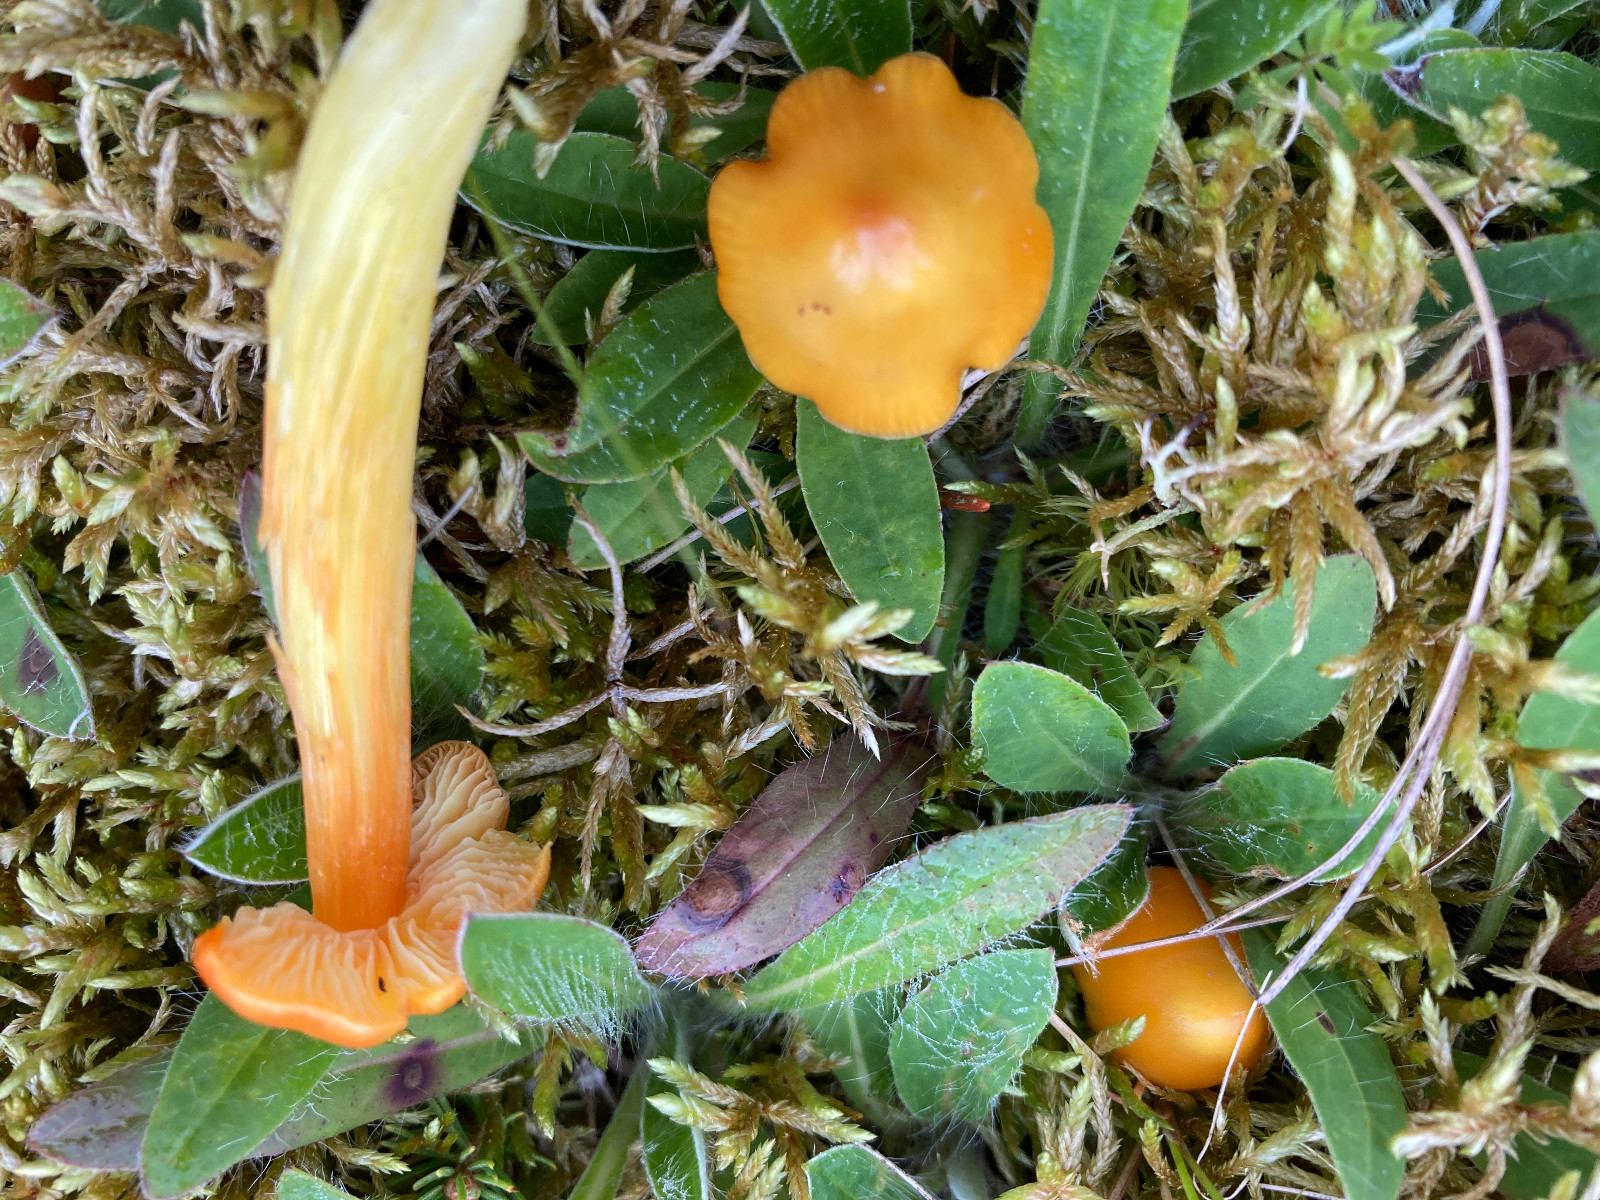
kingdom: Fungi
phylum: Basidiomycota
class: Agaricomycetes
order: Agaricales
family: Hygrophoraceae
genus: Hygrocybe
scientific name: Hygrocybe acutoconica
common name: spidspuklet vokshat
